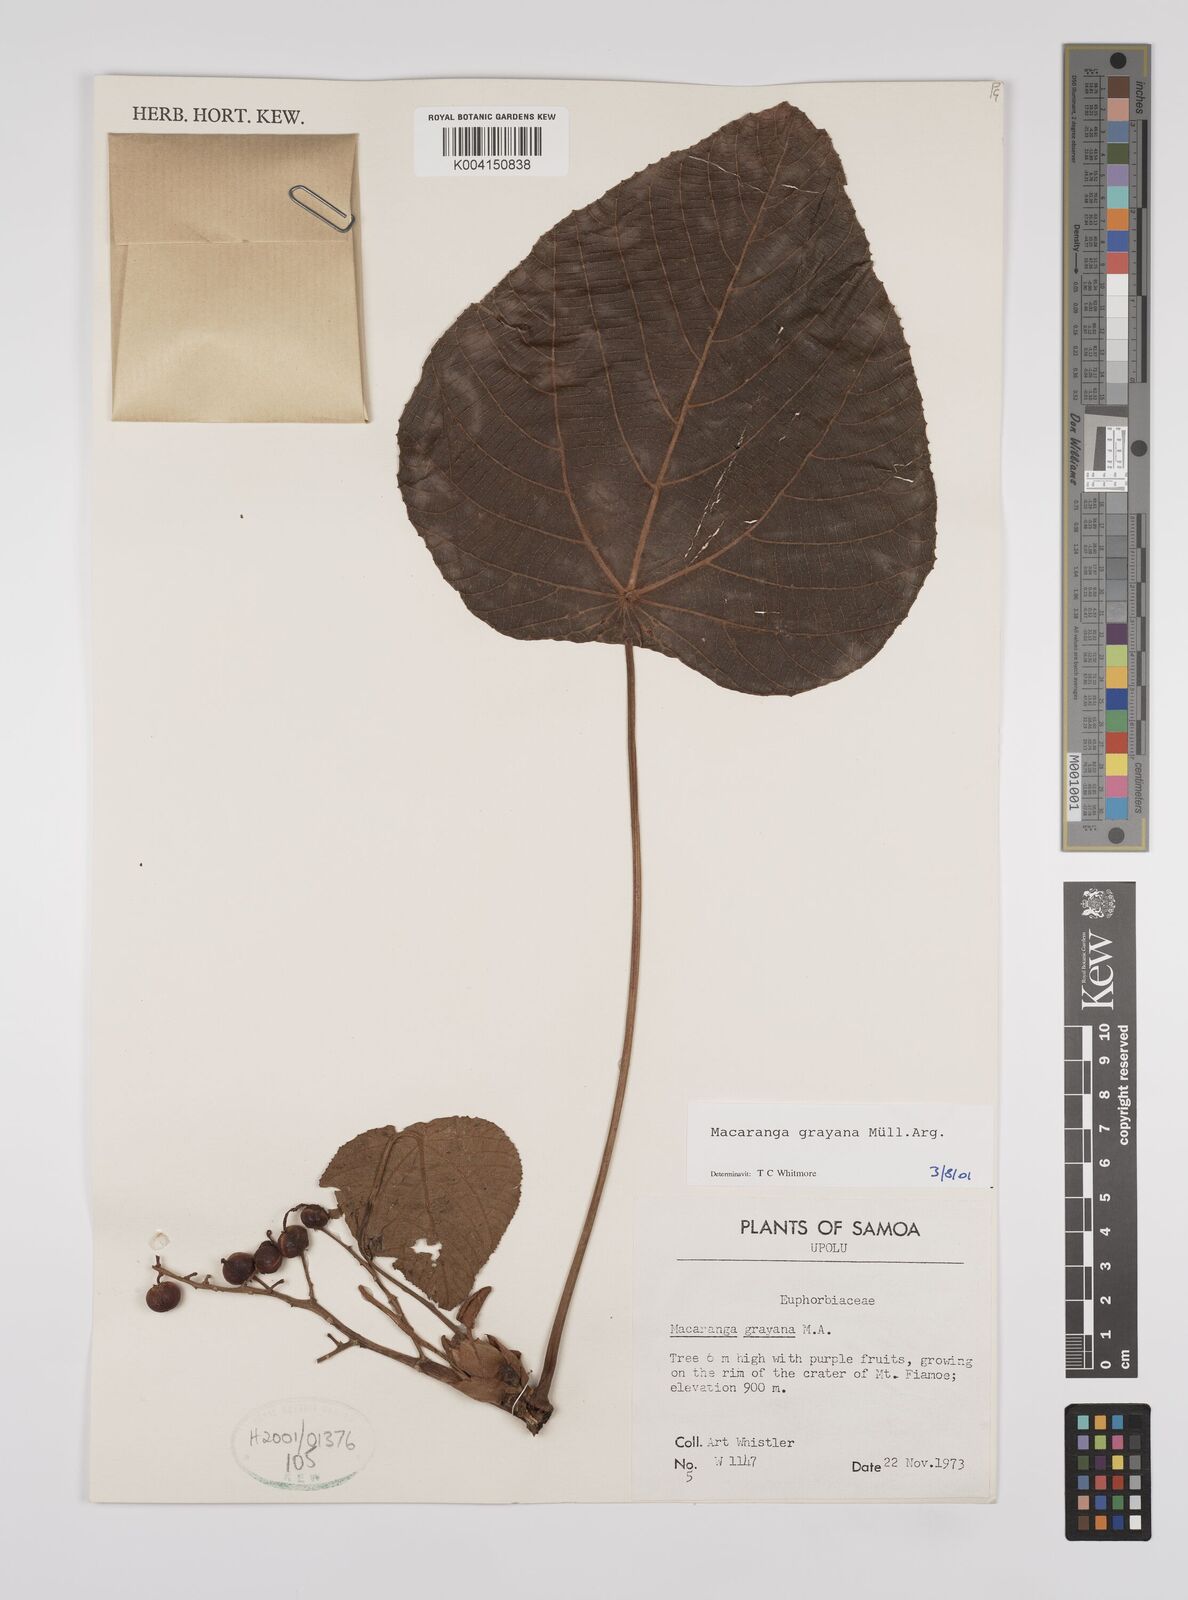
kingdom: Plantae
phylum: Tracheophyta
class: Magnoliopsida
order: Malpighiales
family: Euphorbiaceae
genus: Macaranga
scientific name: Macaranga grayana
